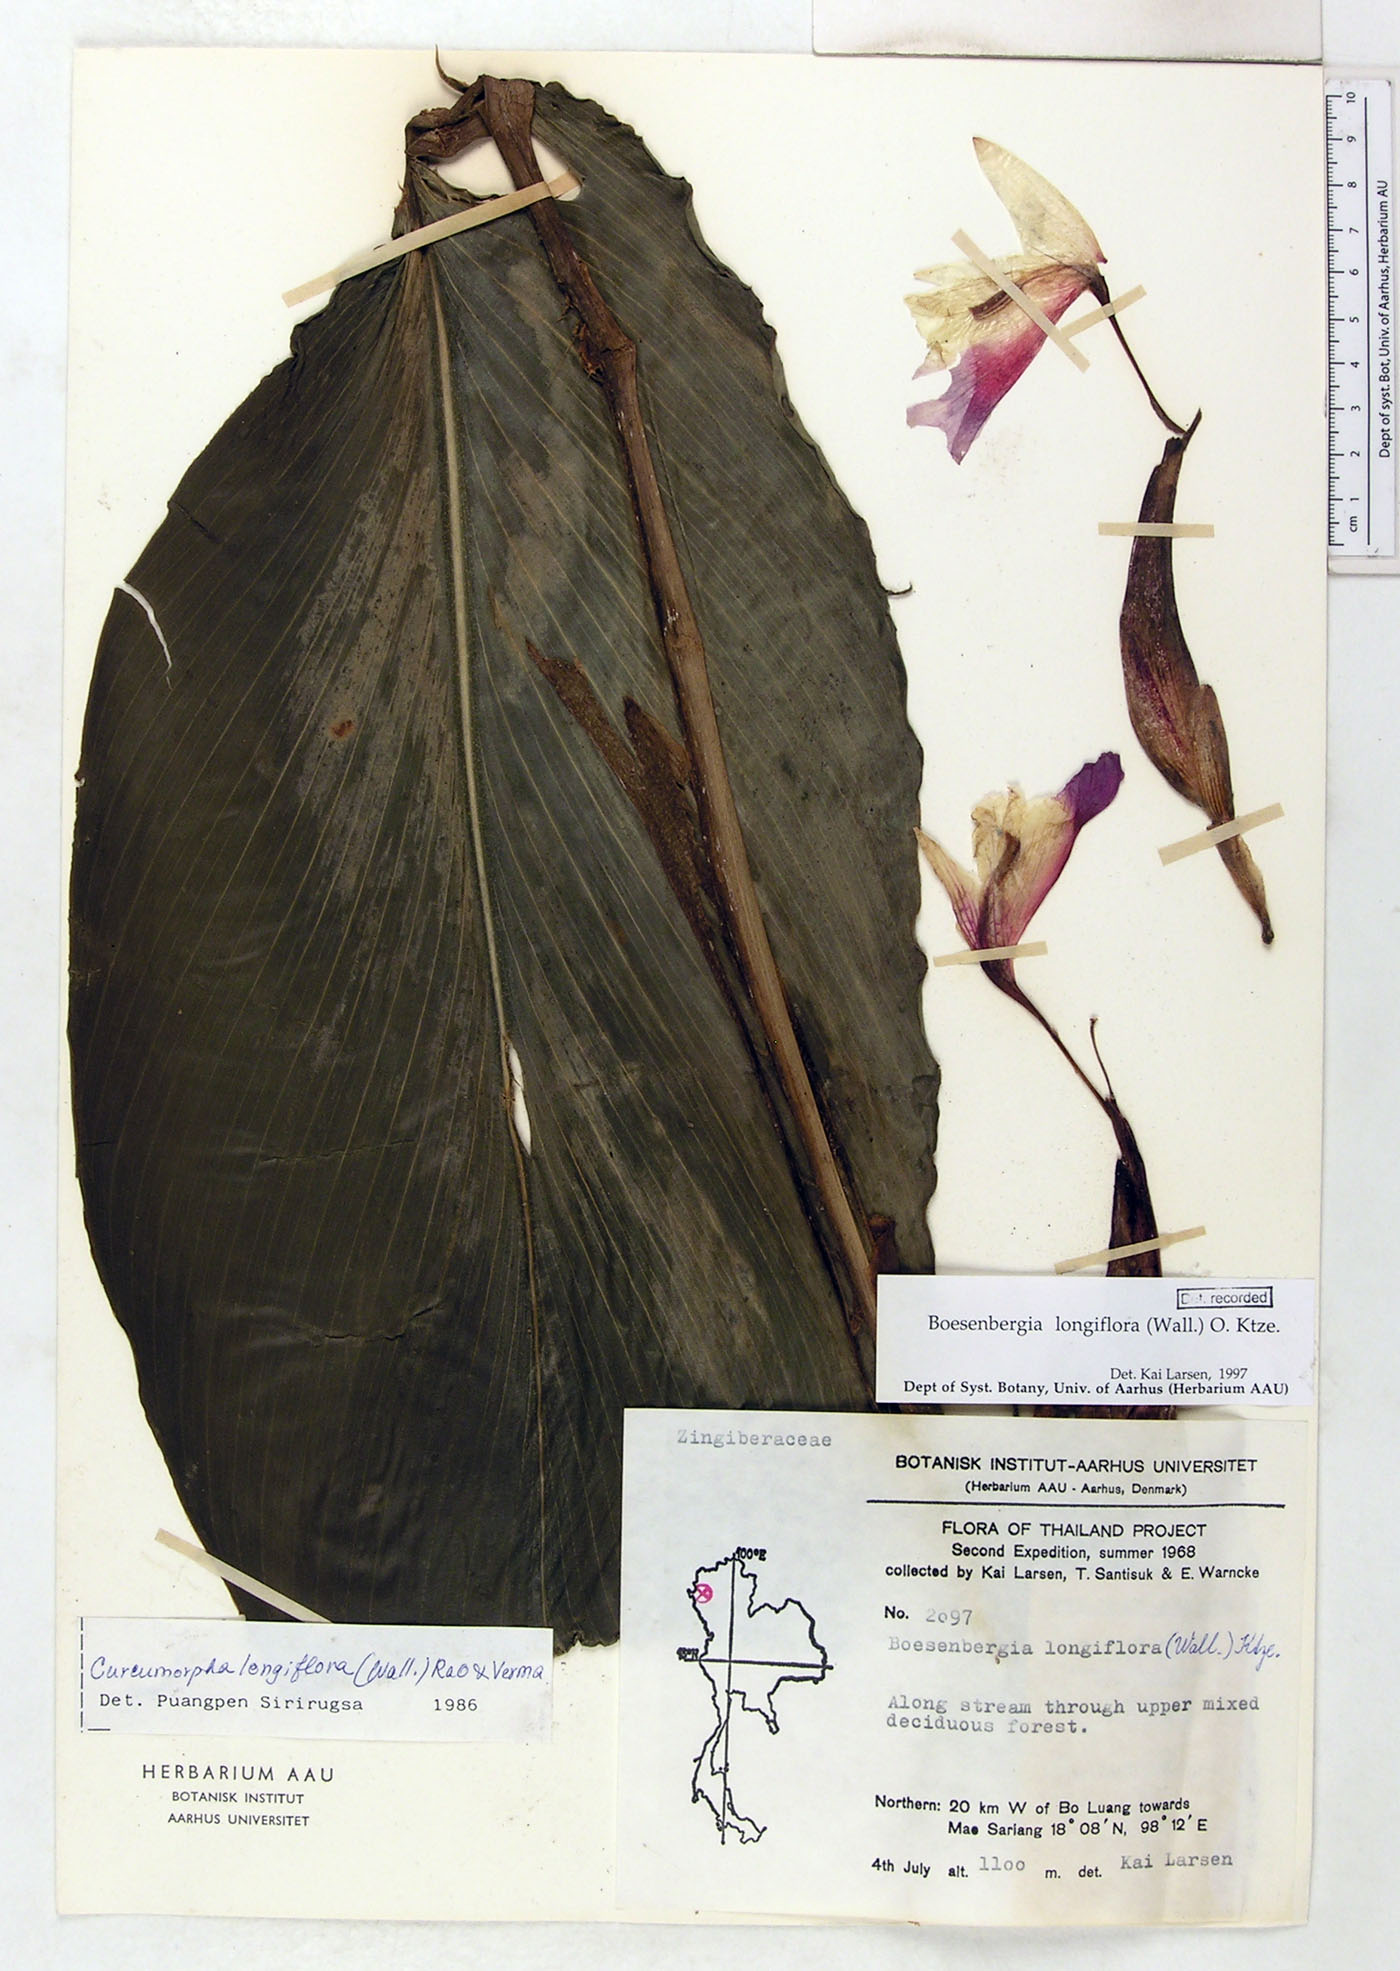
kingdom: Plantae
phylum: Tracheophyta
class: Liliopsida
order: Zingiberales
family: Zingiberaceae
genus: Boesenbergia
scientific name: Boesenbergia longiflora
